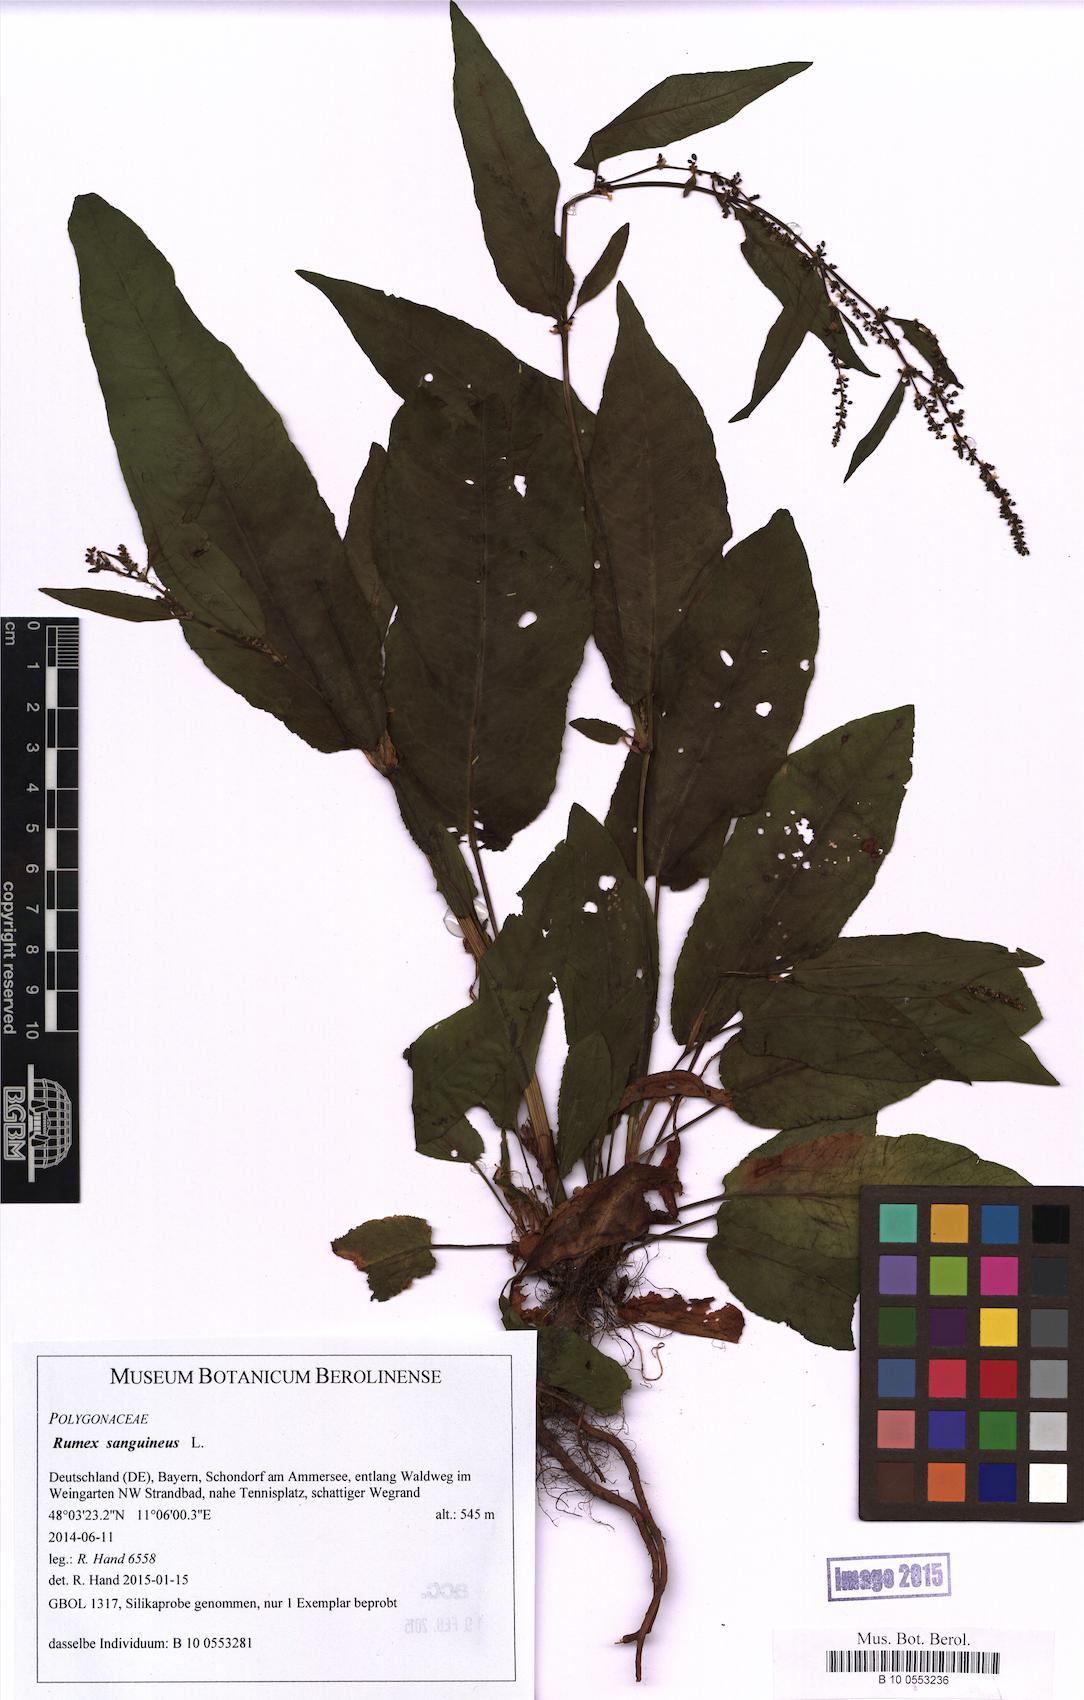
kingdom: Plantae
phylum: Tracheophyta
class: Magnoliopsida
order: Caryophyllales
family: Polygonaceae
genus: Rumex
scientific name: Rumex sanguineus
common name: Wood dock
